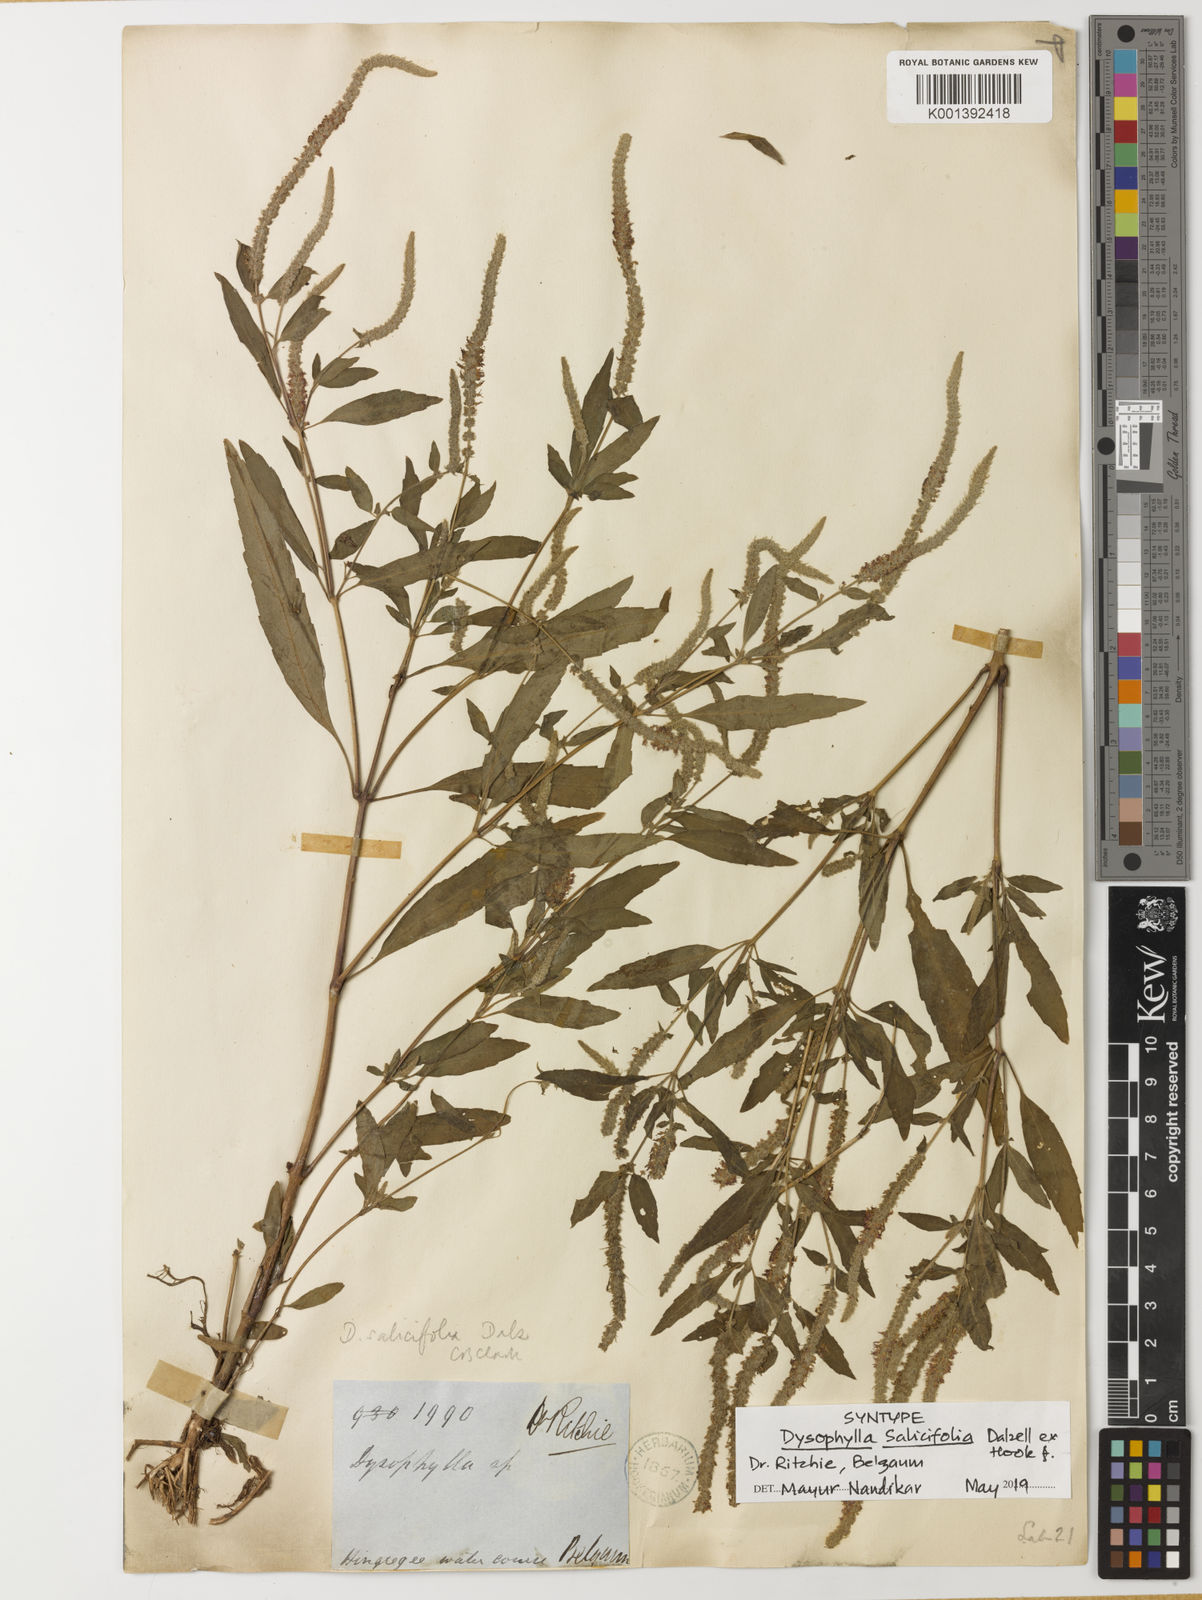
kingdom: Plantae
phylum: Tracheophyta
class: Magnoliopsida
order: Lamiales
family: Lamiaceae
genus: Pogostemon
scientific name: Pogostemon salicifolius
